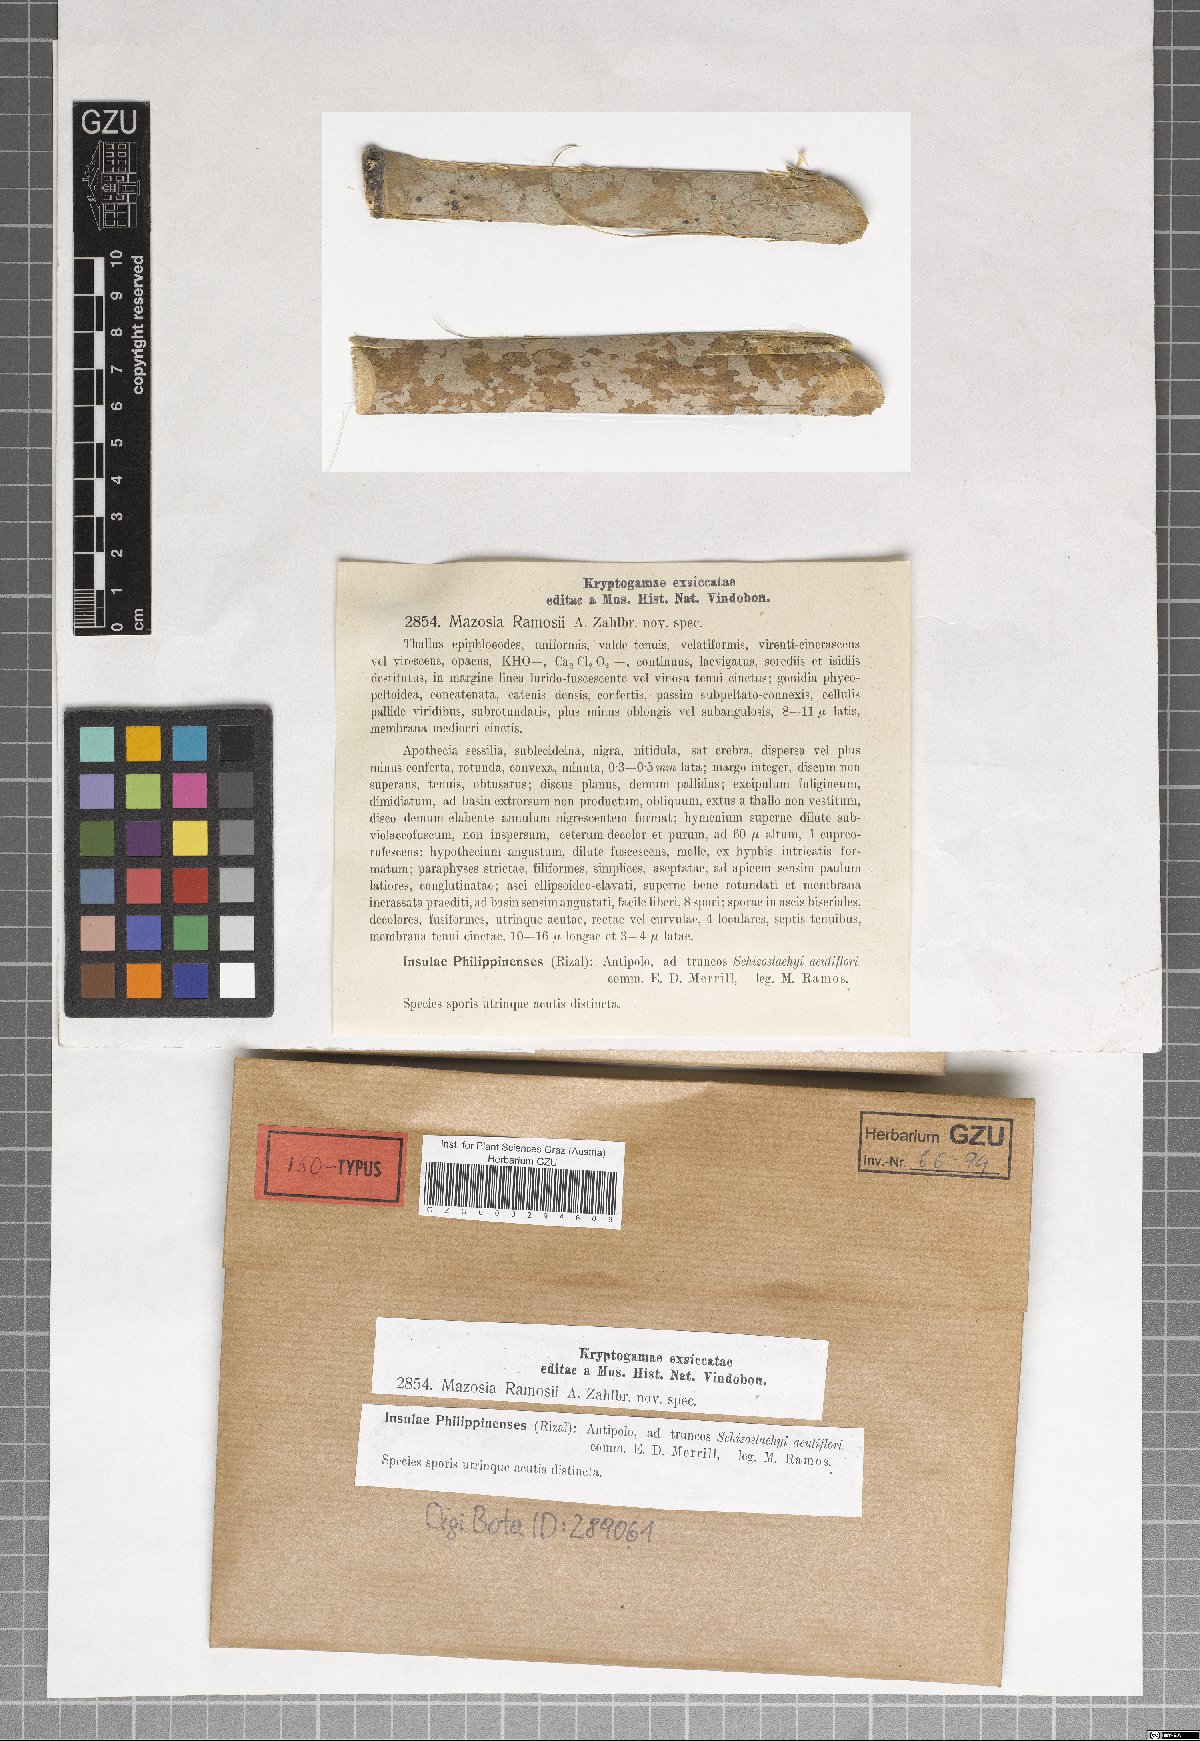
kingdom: Fungi
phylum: Ascomycota
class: Arthoniomycetes
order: Arthoniales
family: Roccellaceae
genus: Mazosia
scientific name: Mazosia ramosii
